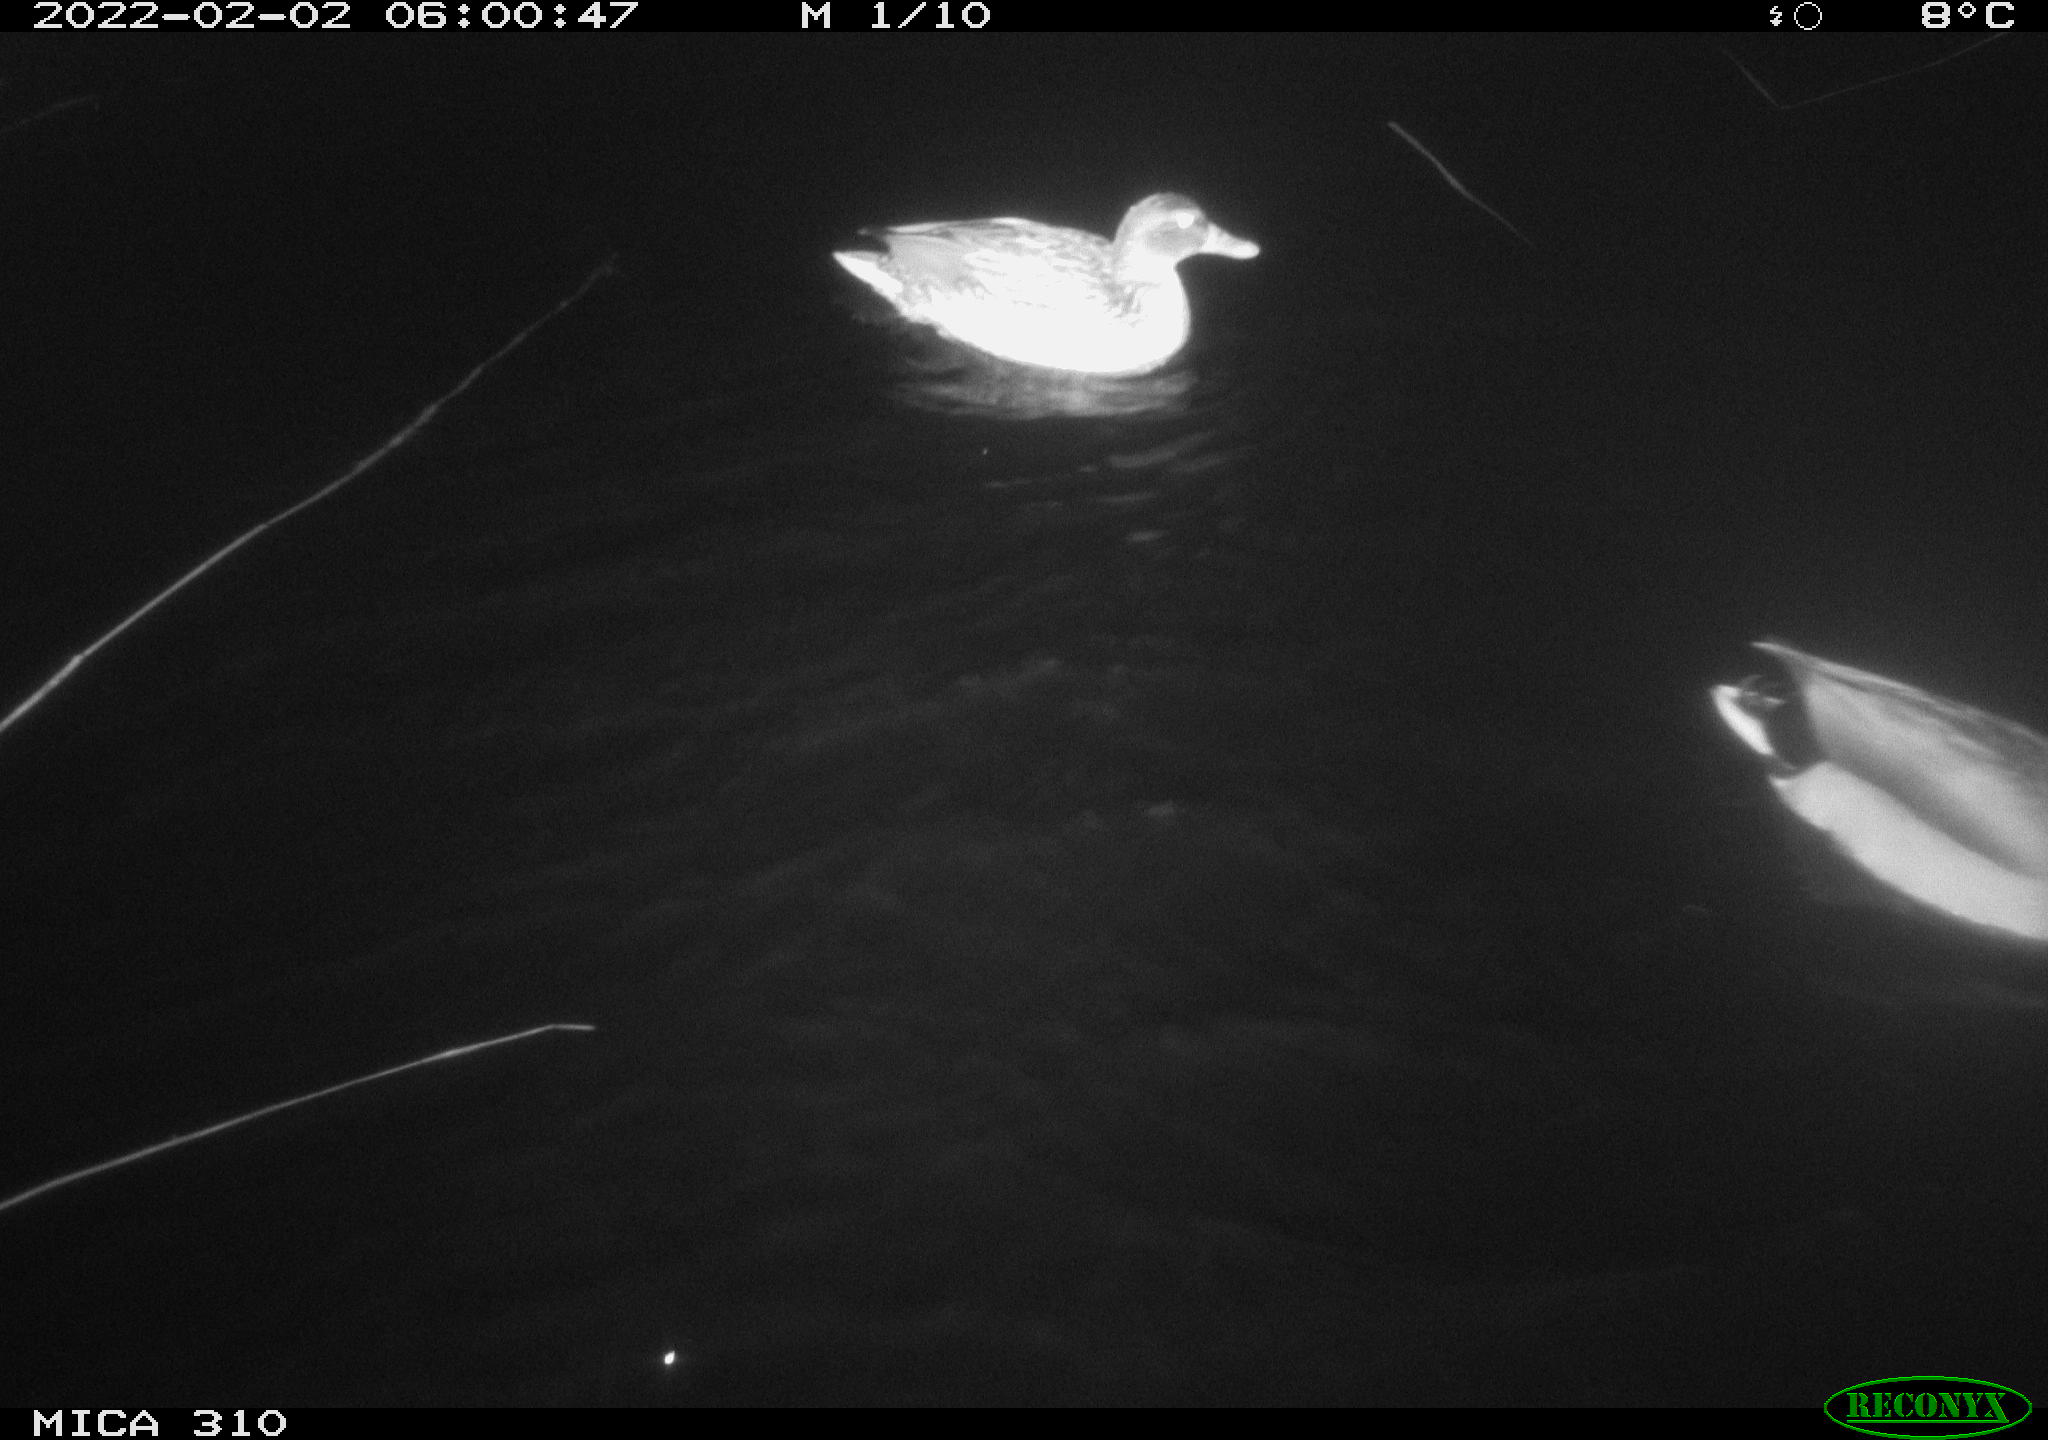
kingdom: Animalia
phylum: Chordata
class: Aves
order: Anseriformes
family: Anatidae
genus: Anas
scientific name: Anas
